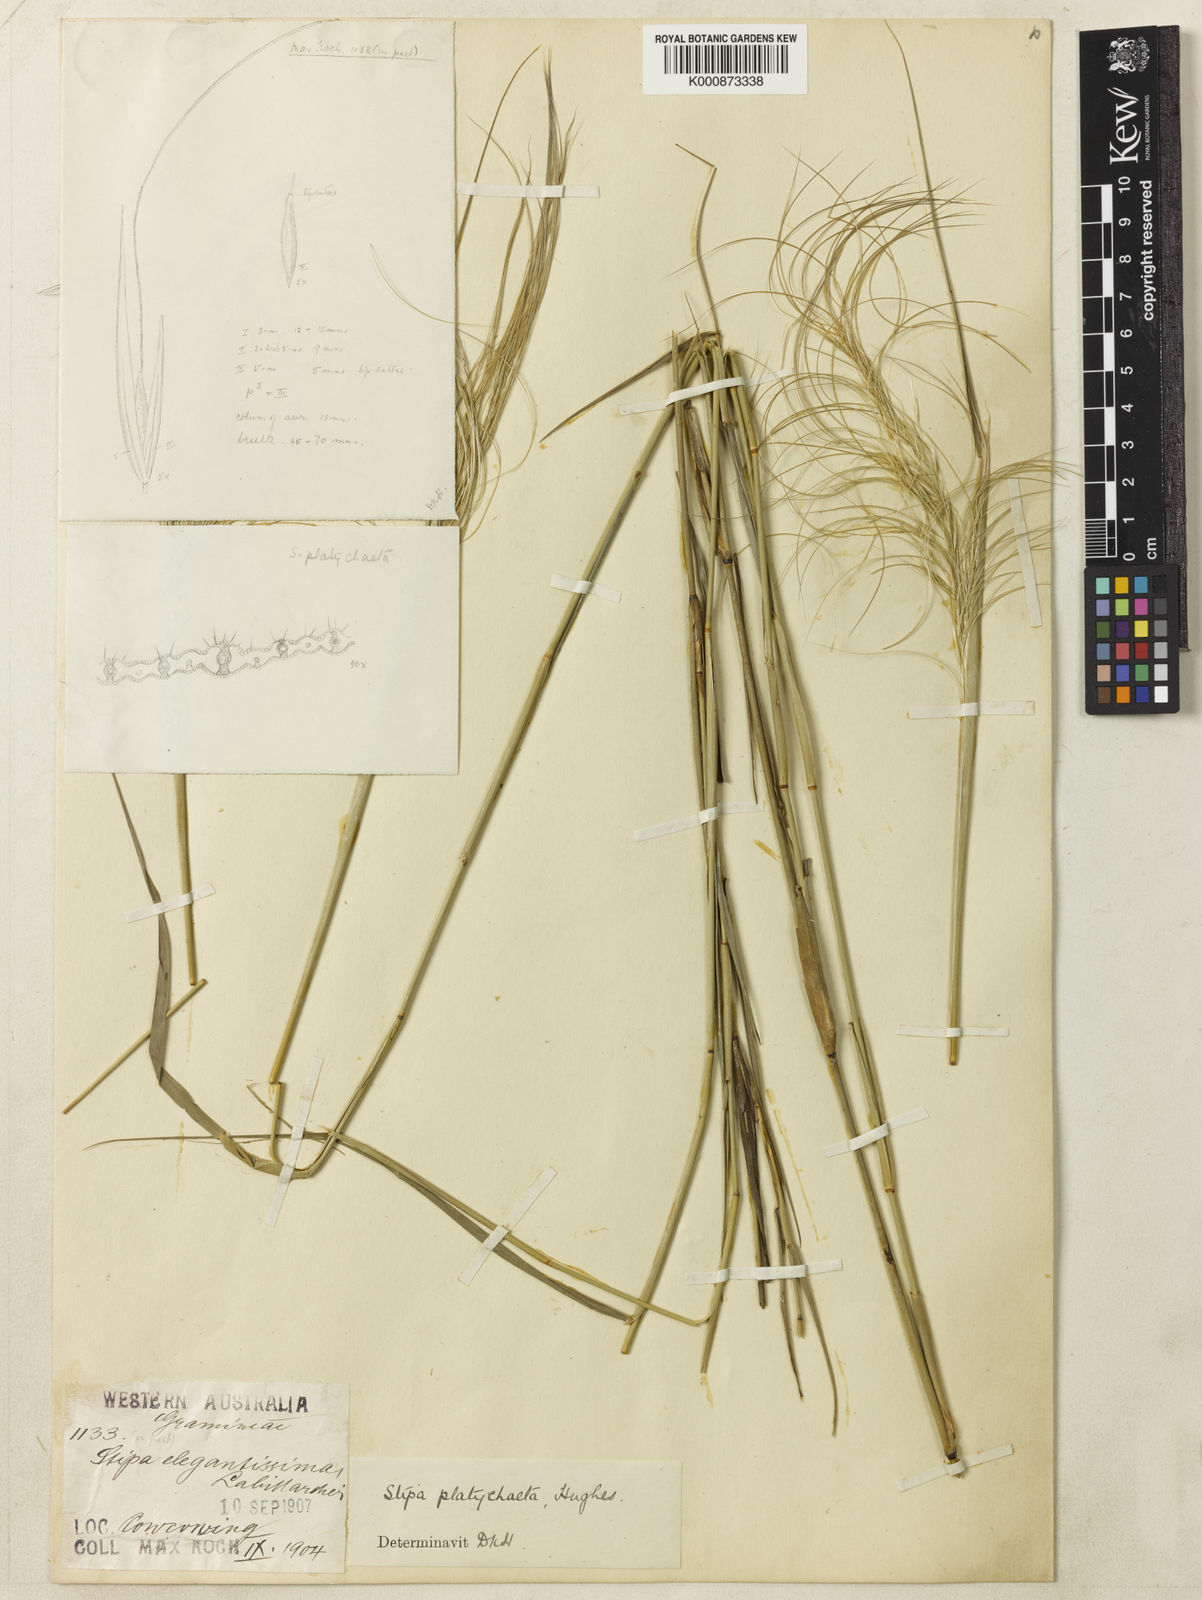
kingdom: Plantae
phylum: Tracheophyta
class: Liliopsida
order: Poales
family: Poaceae
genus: Austrostipa
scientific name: Austrostipa platychaeta
